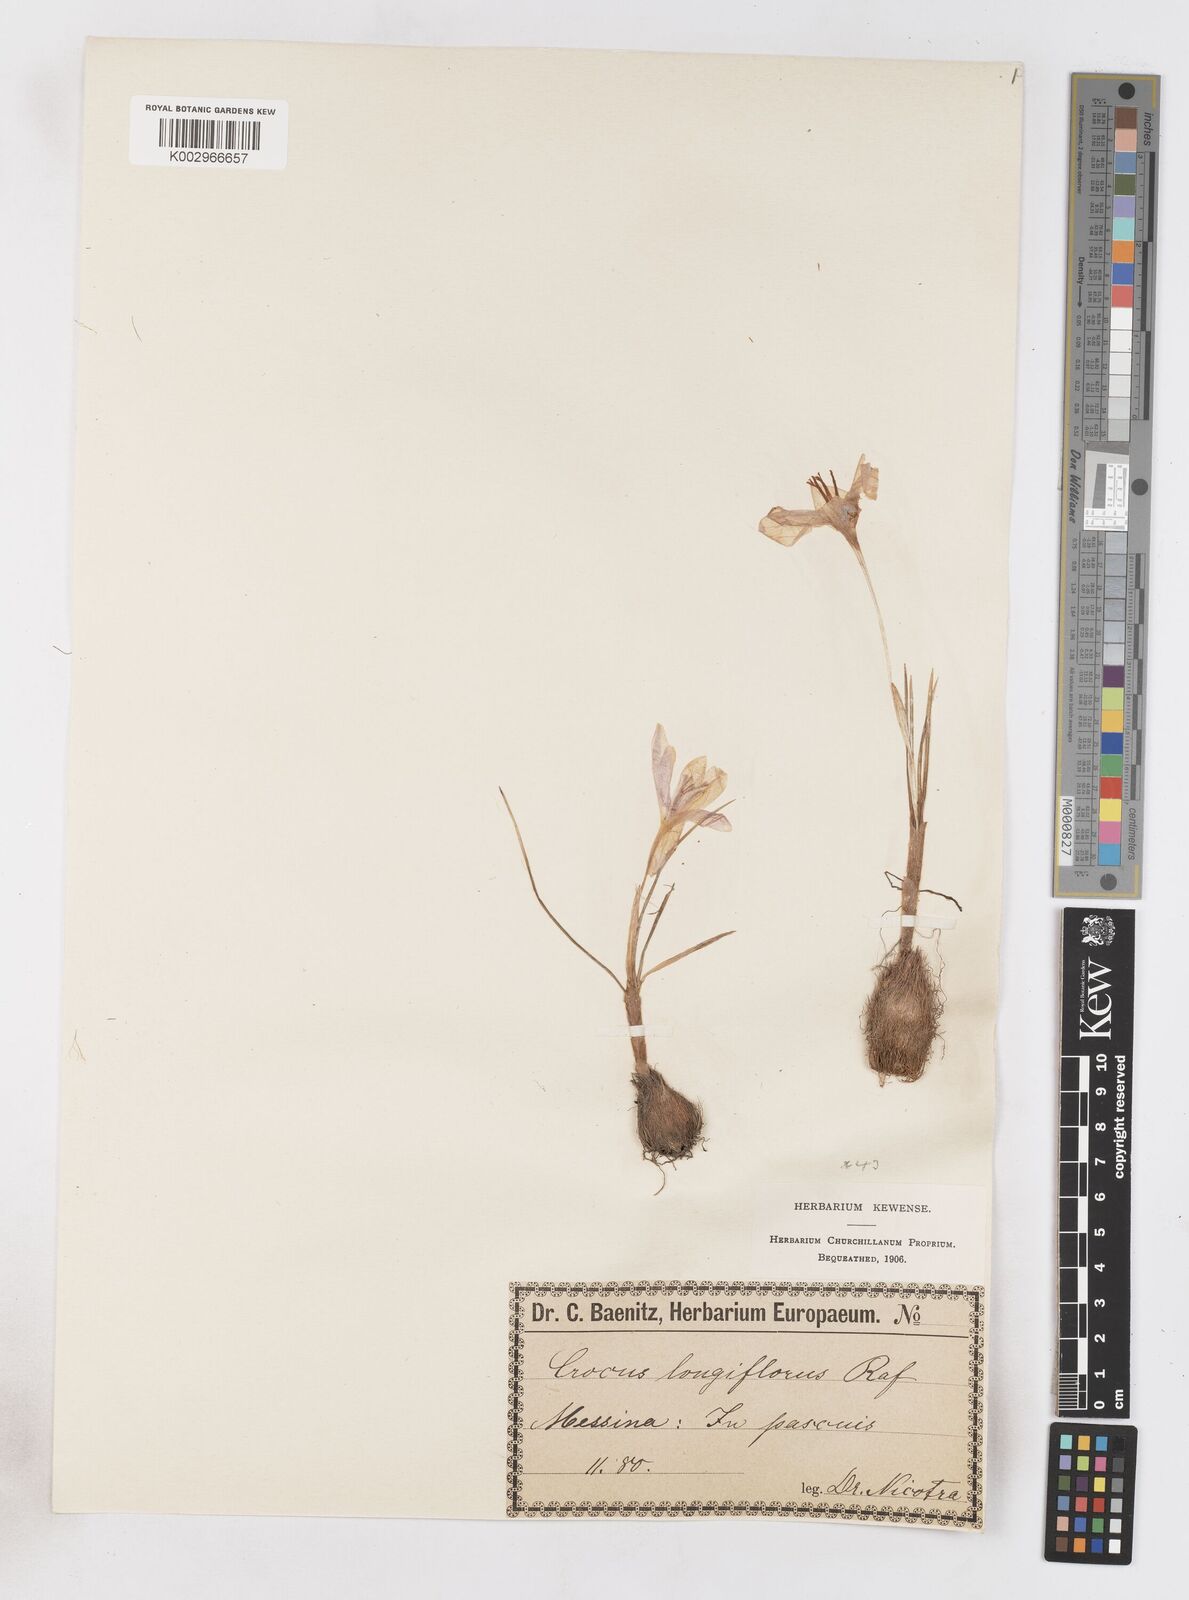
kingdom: Plantae
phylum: Tracheophyta
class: Liliopsida
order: Asparagales
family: Iridaceae
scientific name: Iridaceae
